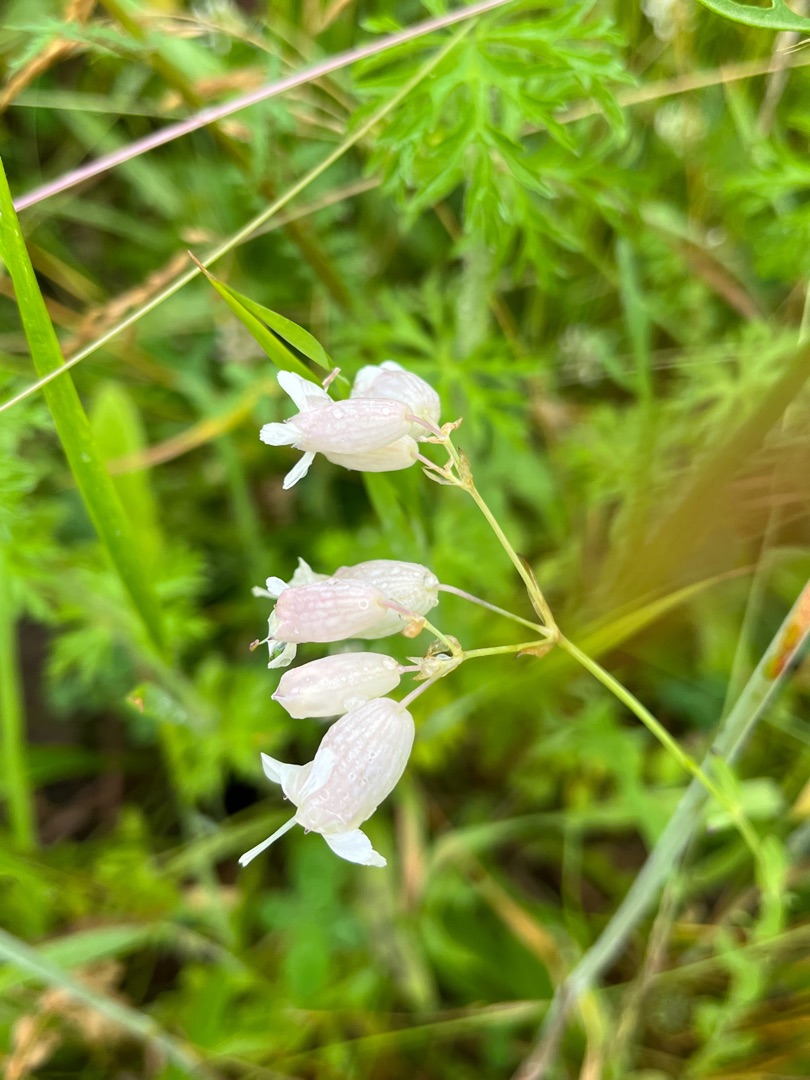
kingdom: Plantae
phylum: Tracheophyta
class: Magnoliopsida
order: Caryophyllales
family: Caryophyllaceae
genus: Silene
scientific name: Silene vulgaris
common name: Blæresmælde
